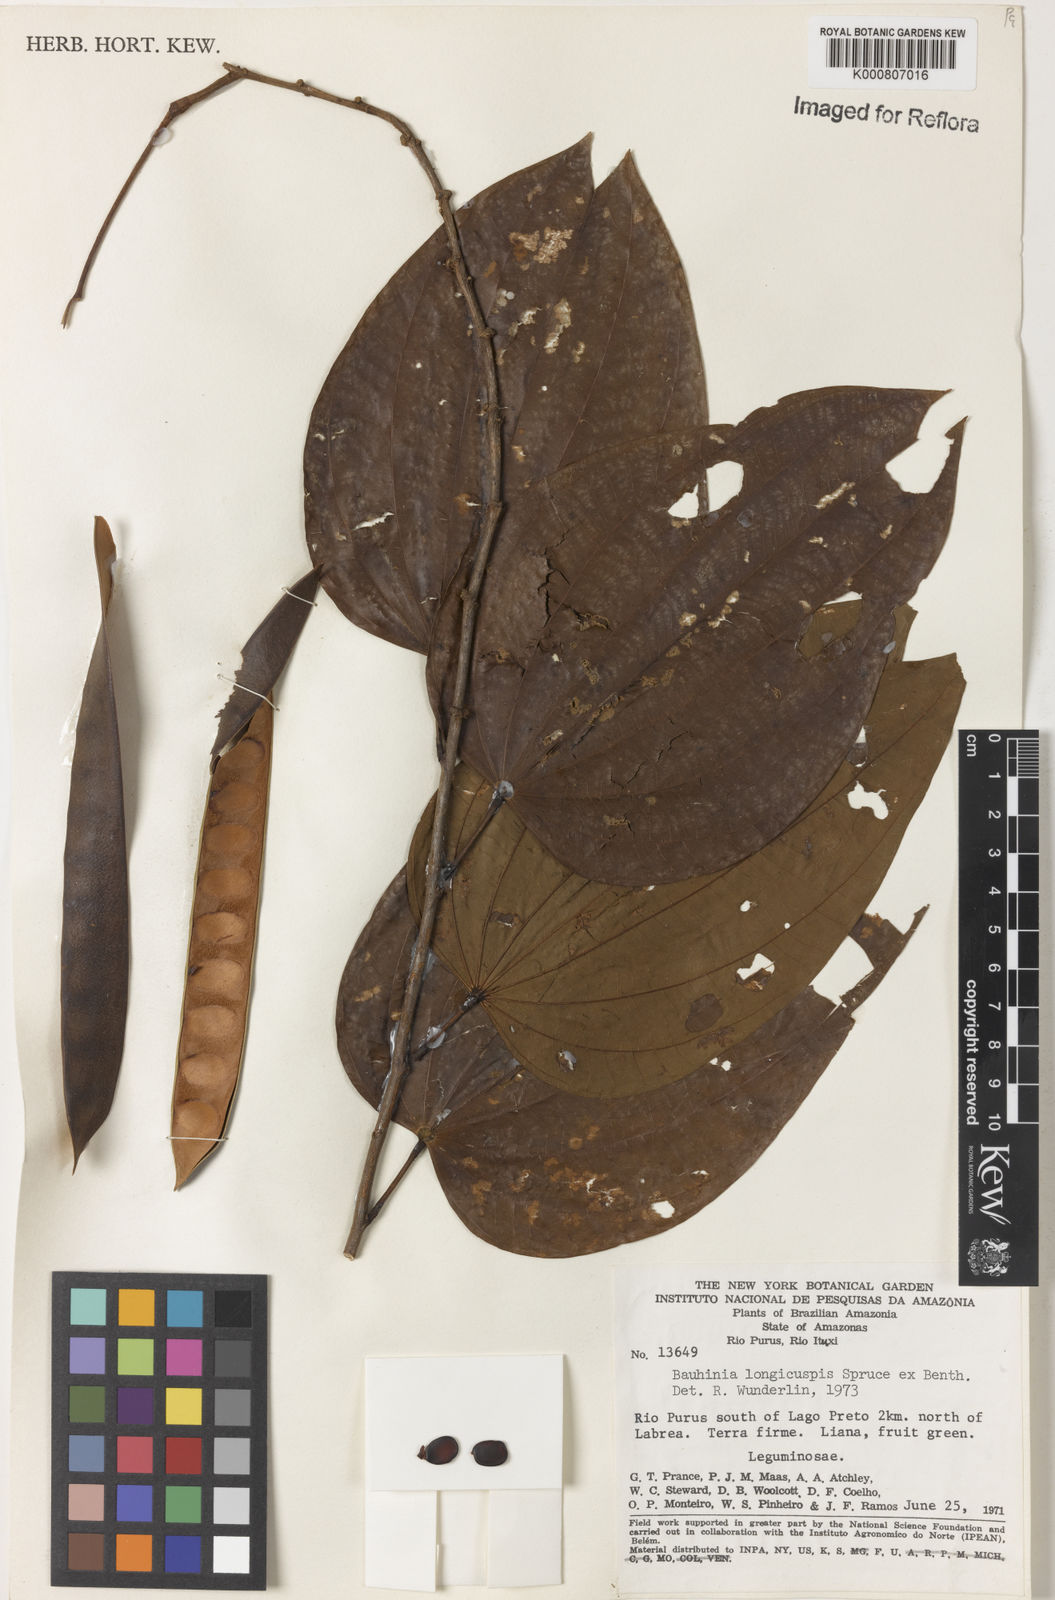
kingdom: Plantae
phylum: Tracheophyta
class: Magnoliopsida
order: Fabales
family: Fabaceae
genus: Bauhinia
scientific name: Bauhinia longicuspis
